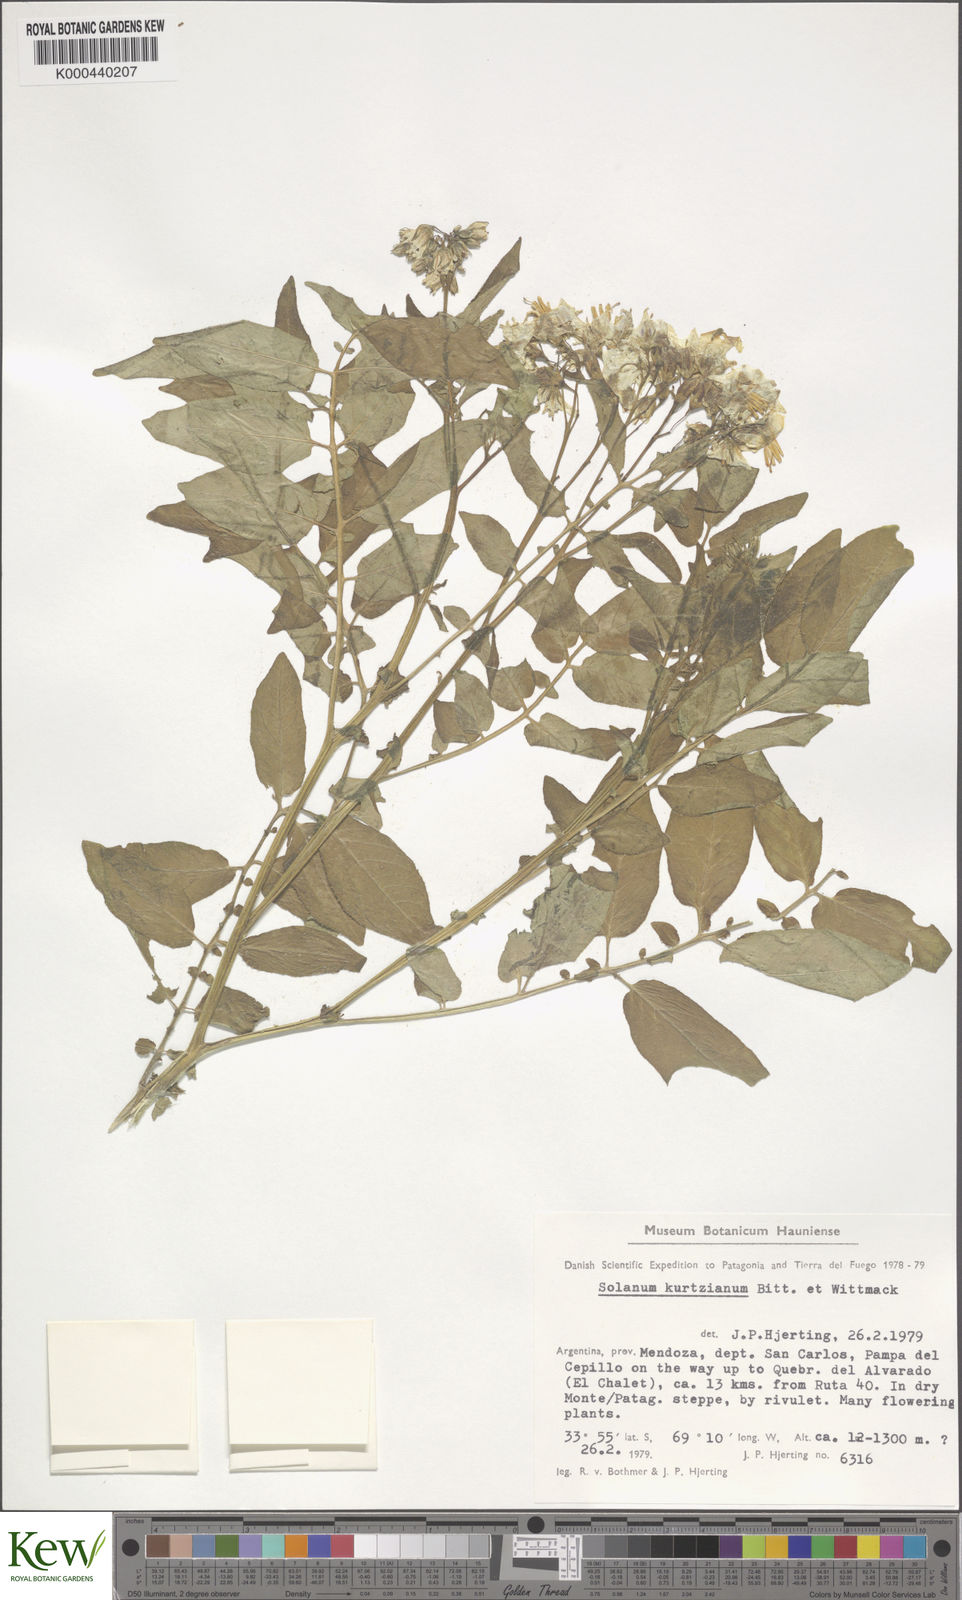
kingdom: Plantae
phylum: Tracheophyta
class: Magnoliopsida
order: Solanales
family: Solanaceae
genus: Solanum
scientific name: Solanum kurtzianum
